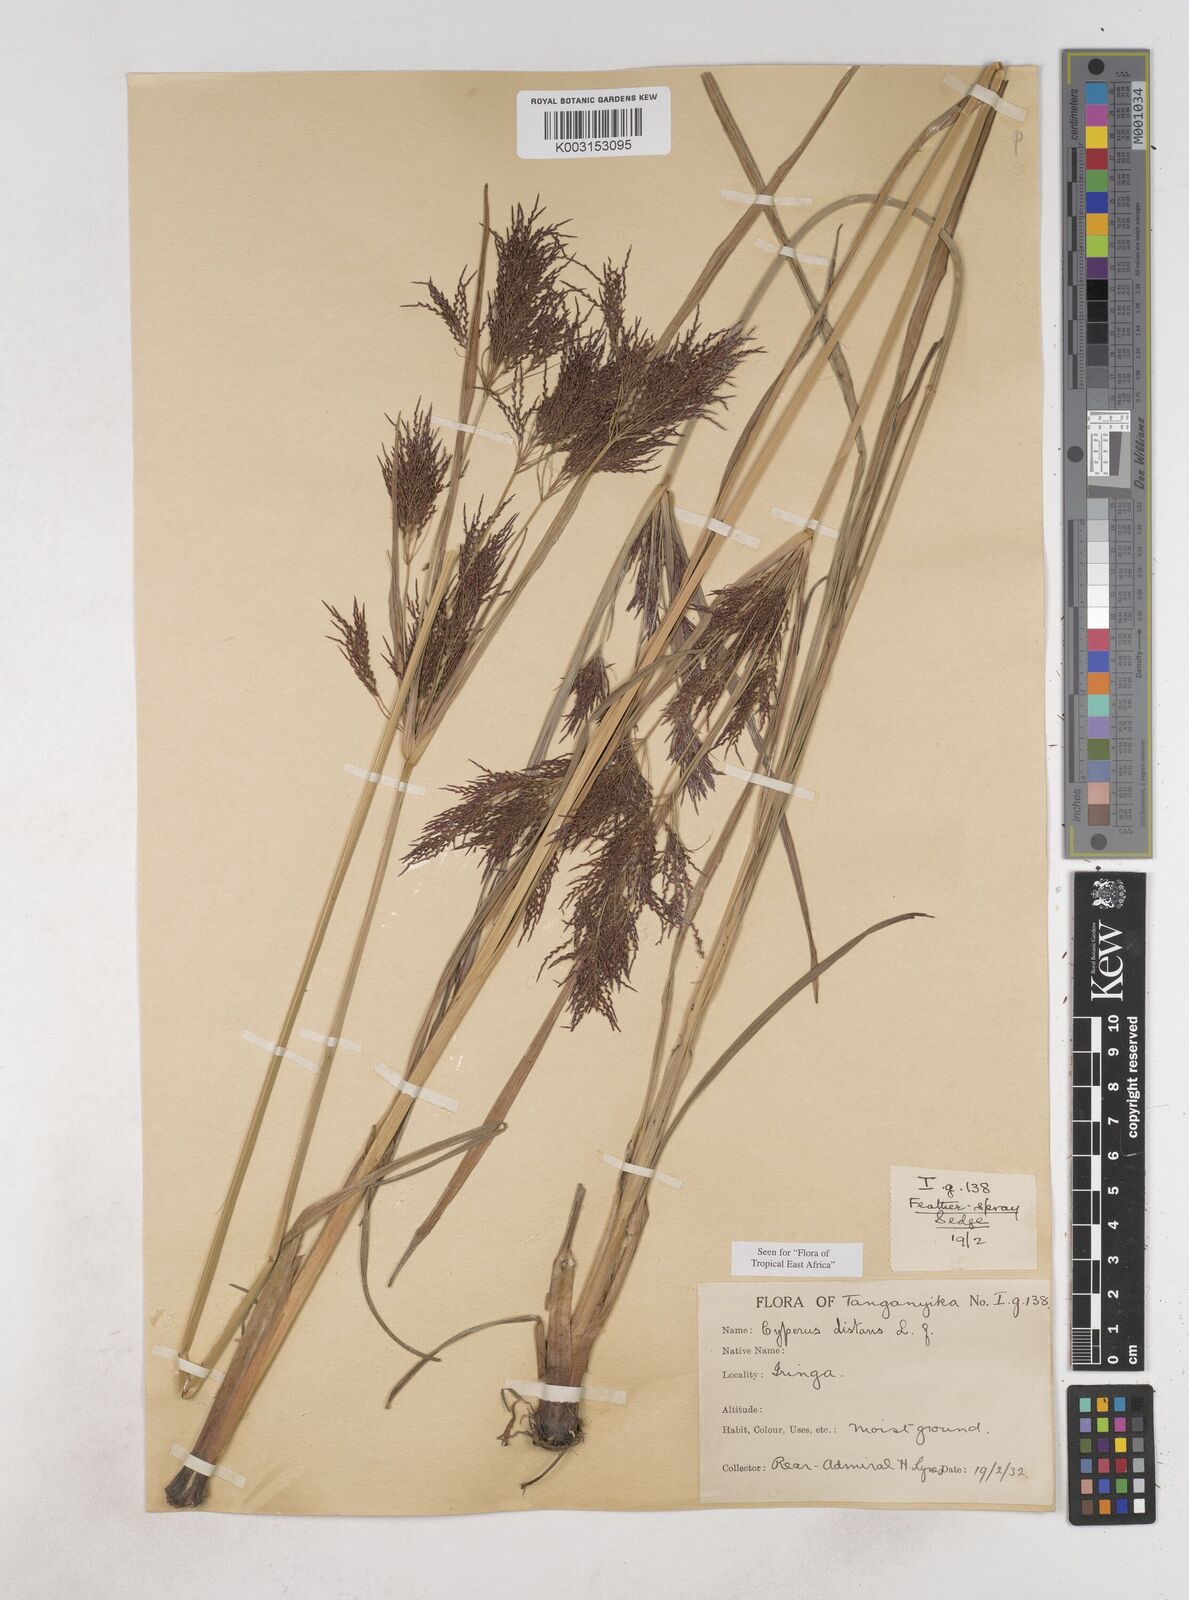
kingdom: Plantae
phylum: Tracheophyta
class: Liliopsida
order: Poales
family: Cyperaceae
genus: Cyperus
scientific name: Cyperus distans
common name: Slender cyperus
